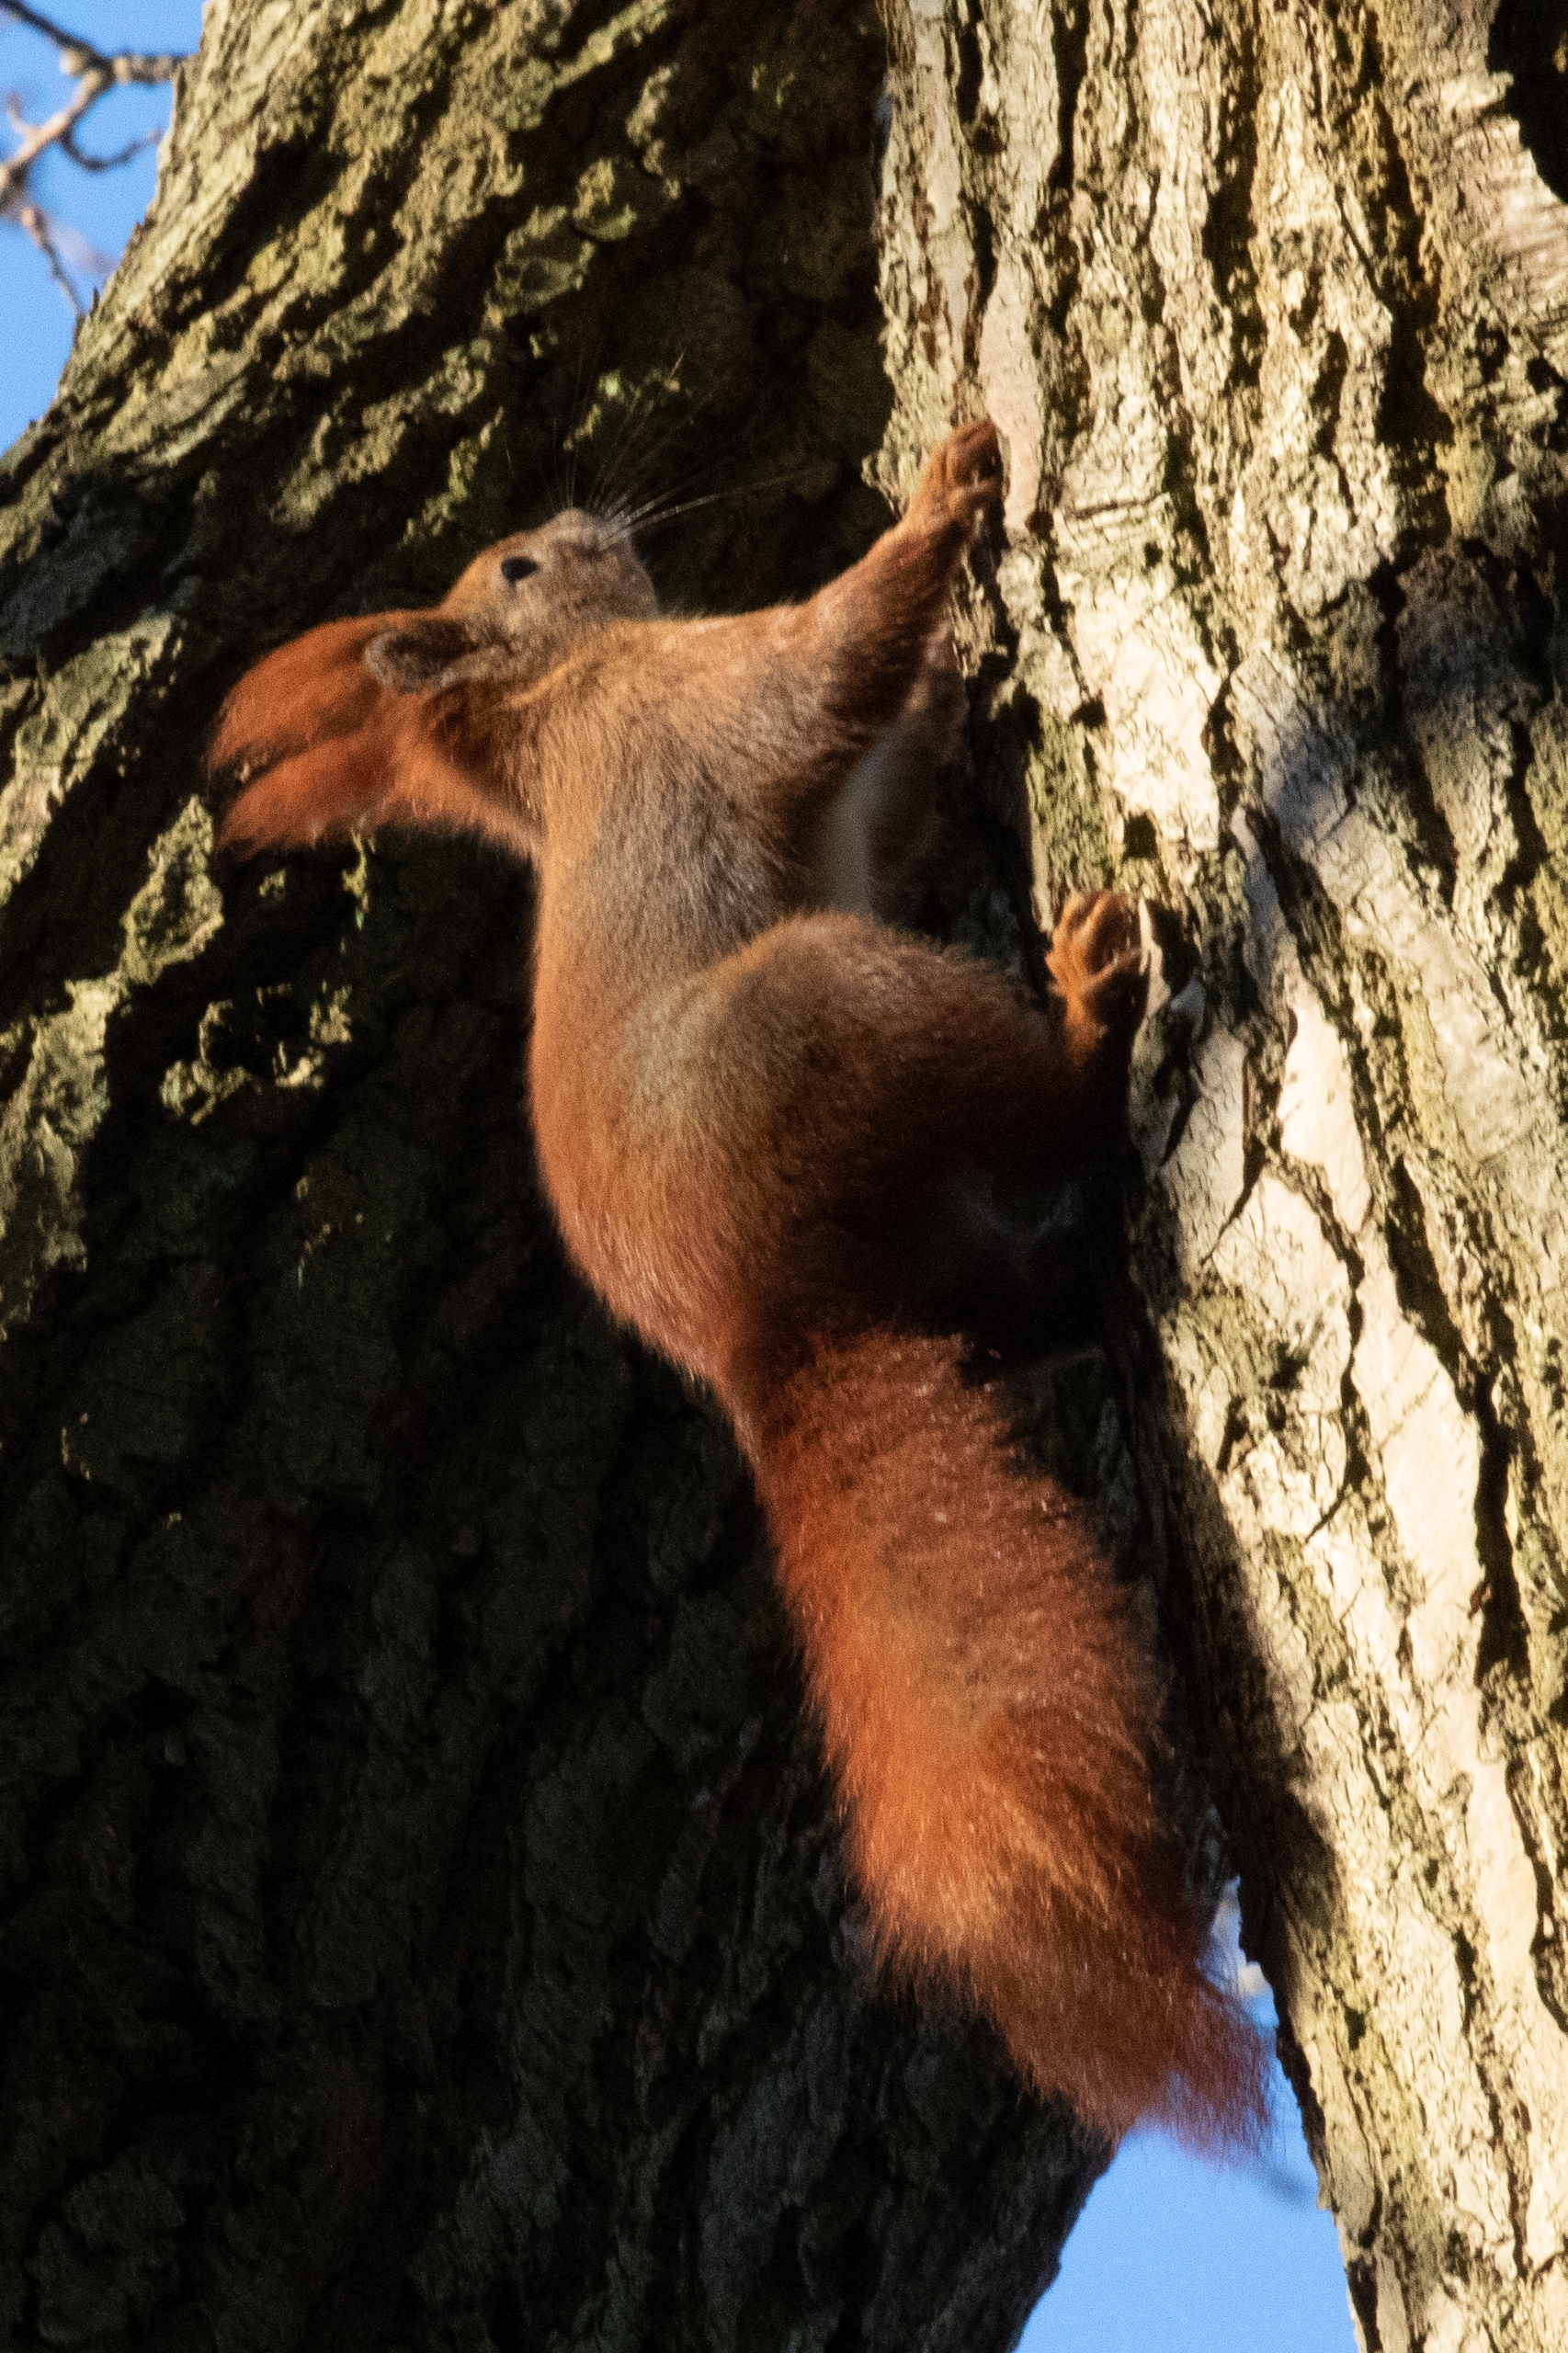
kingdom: Animalia
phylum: Chordata
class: Mammalia
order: Rodentia
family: Sciuridae
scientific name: Sciuridae
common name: Egern
